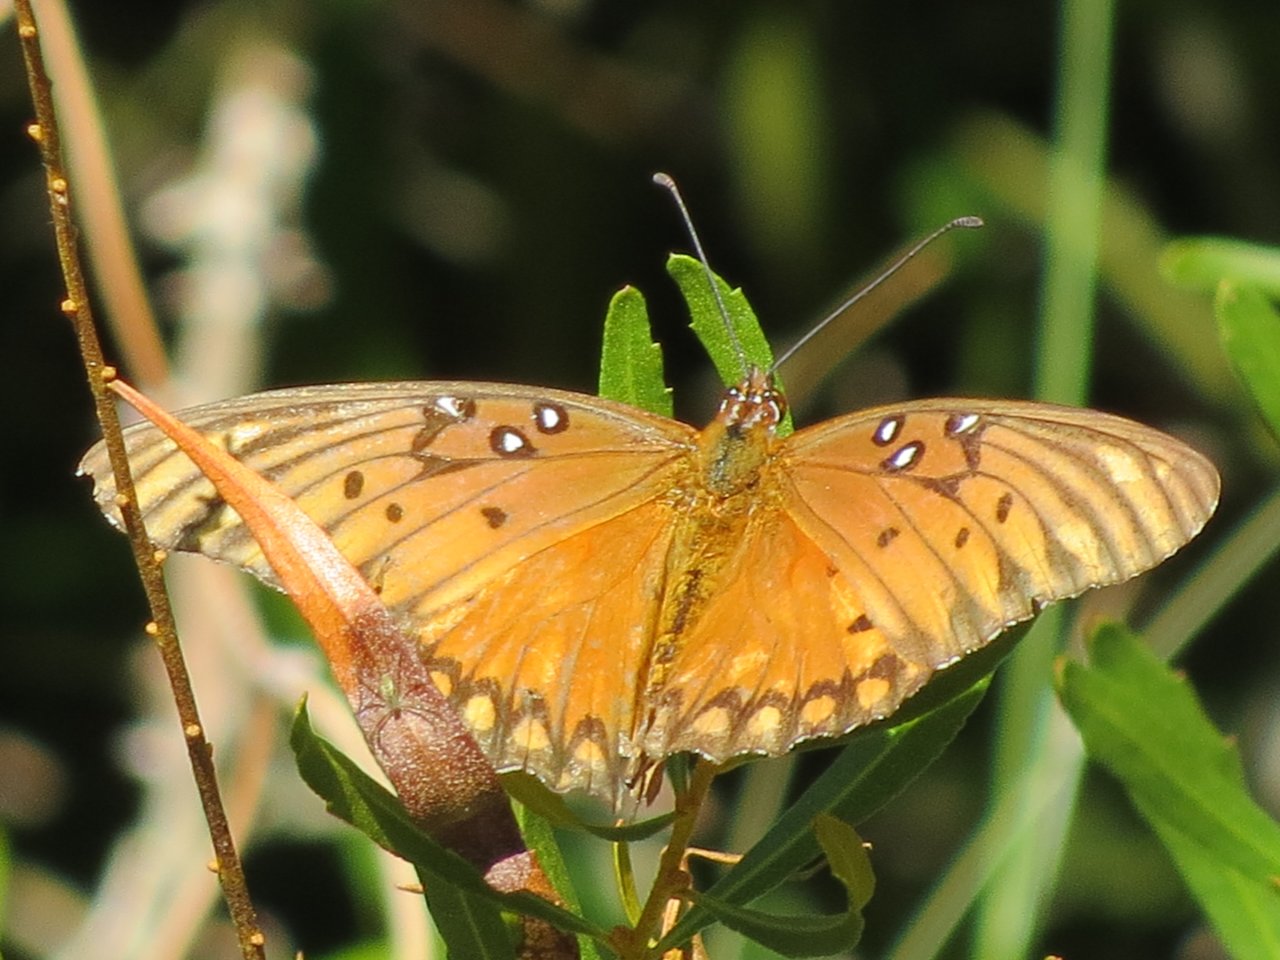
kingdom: Animalia
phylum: Arthropoda
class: Insecta
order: Lepidoptera
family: Nymphalidae
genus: Dione
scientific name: Dione vanillae
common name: Gulf Fritillary
